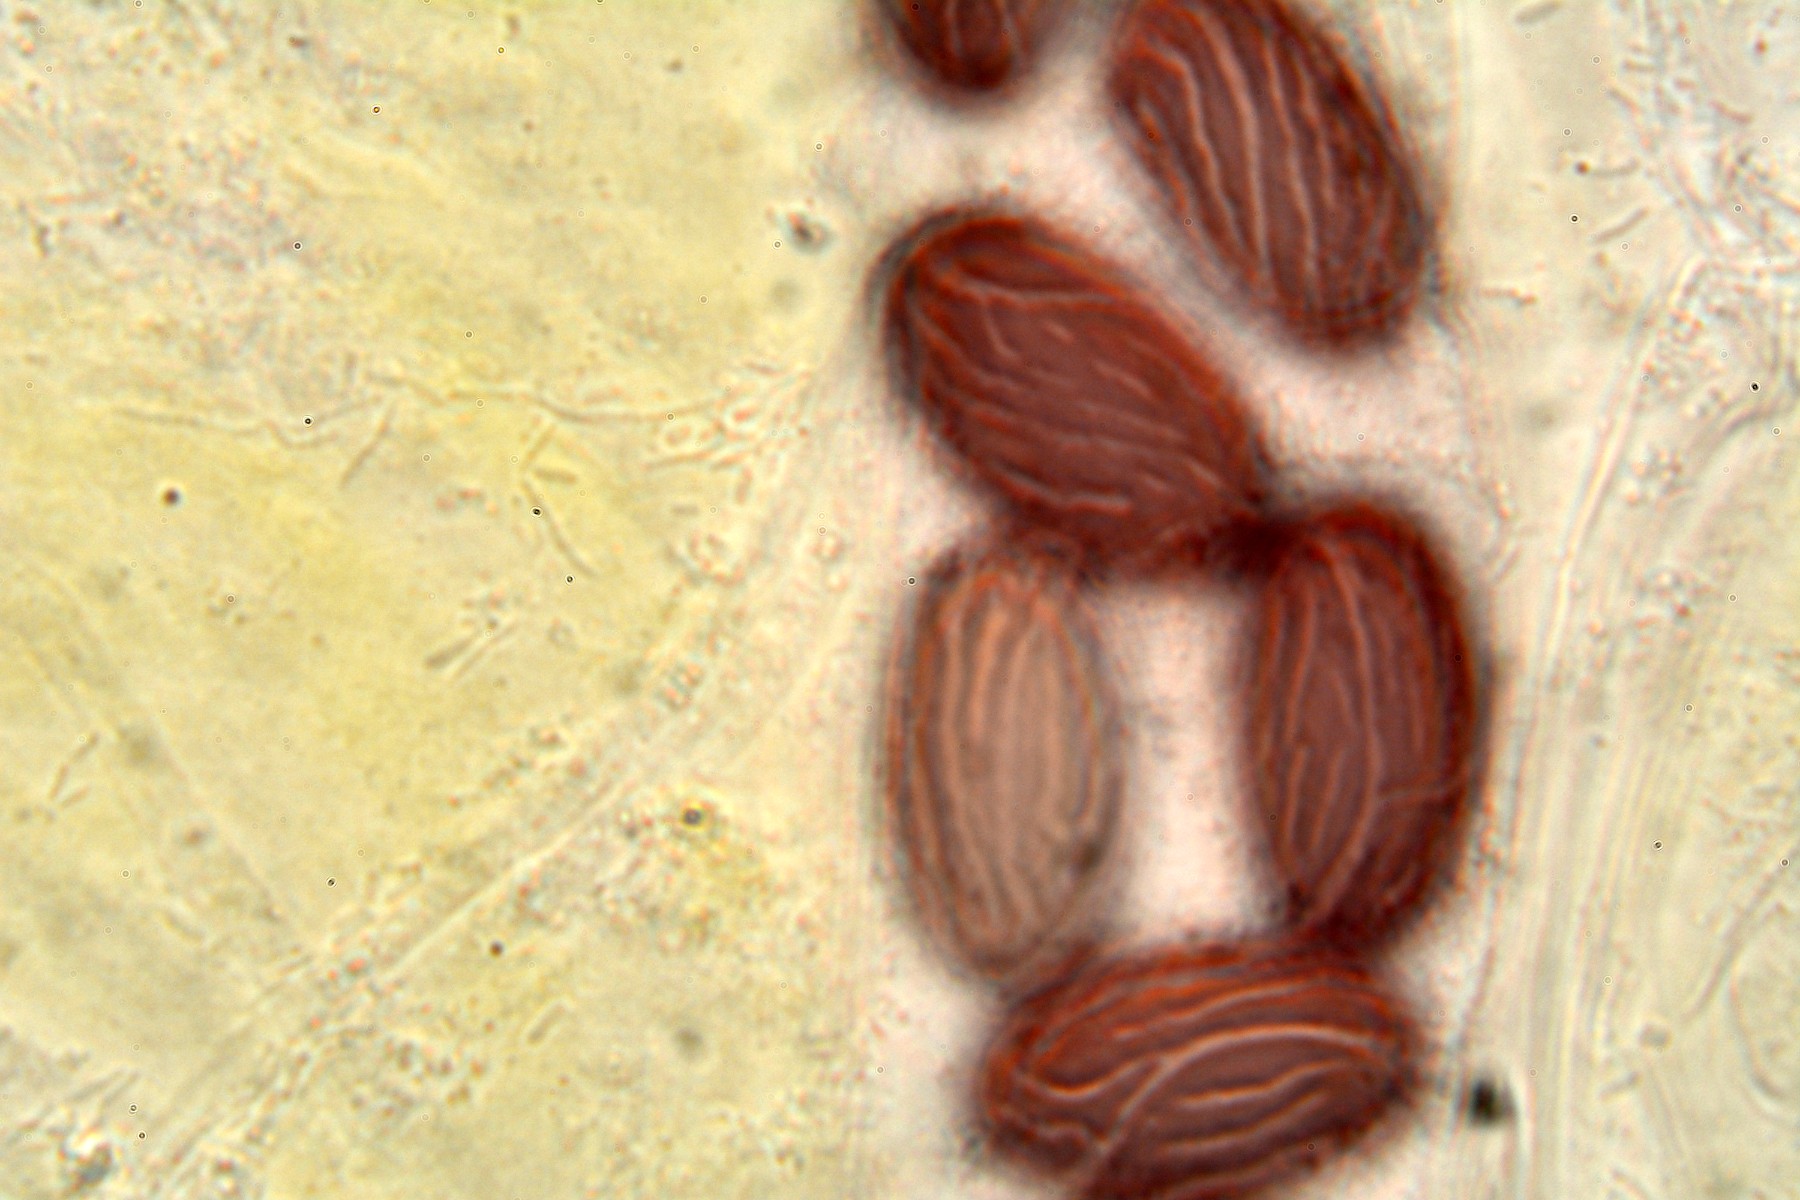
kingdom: Fungi
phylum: Ascomycota
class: Pezizomycetes
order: Pezizales
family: Ascobolaceae
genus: Ascobolus
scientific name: Ascobolus furfuraceus
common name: almindelig prikbæger
